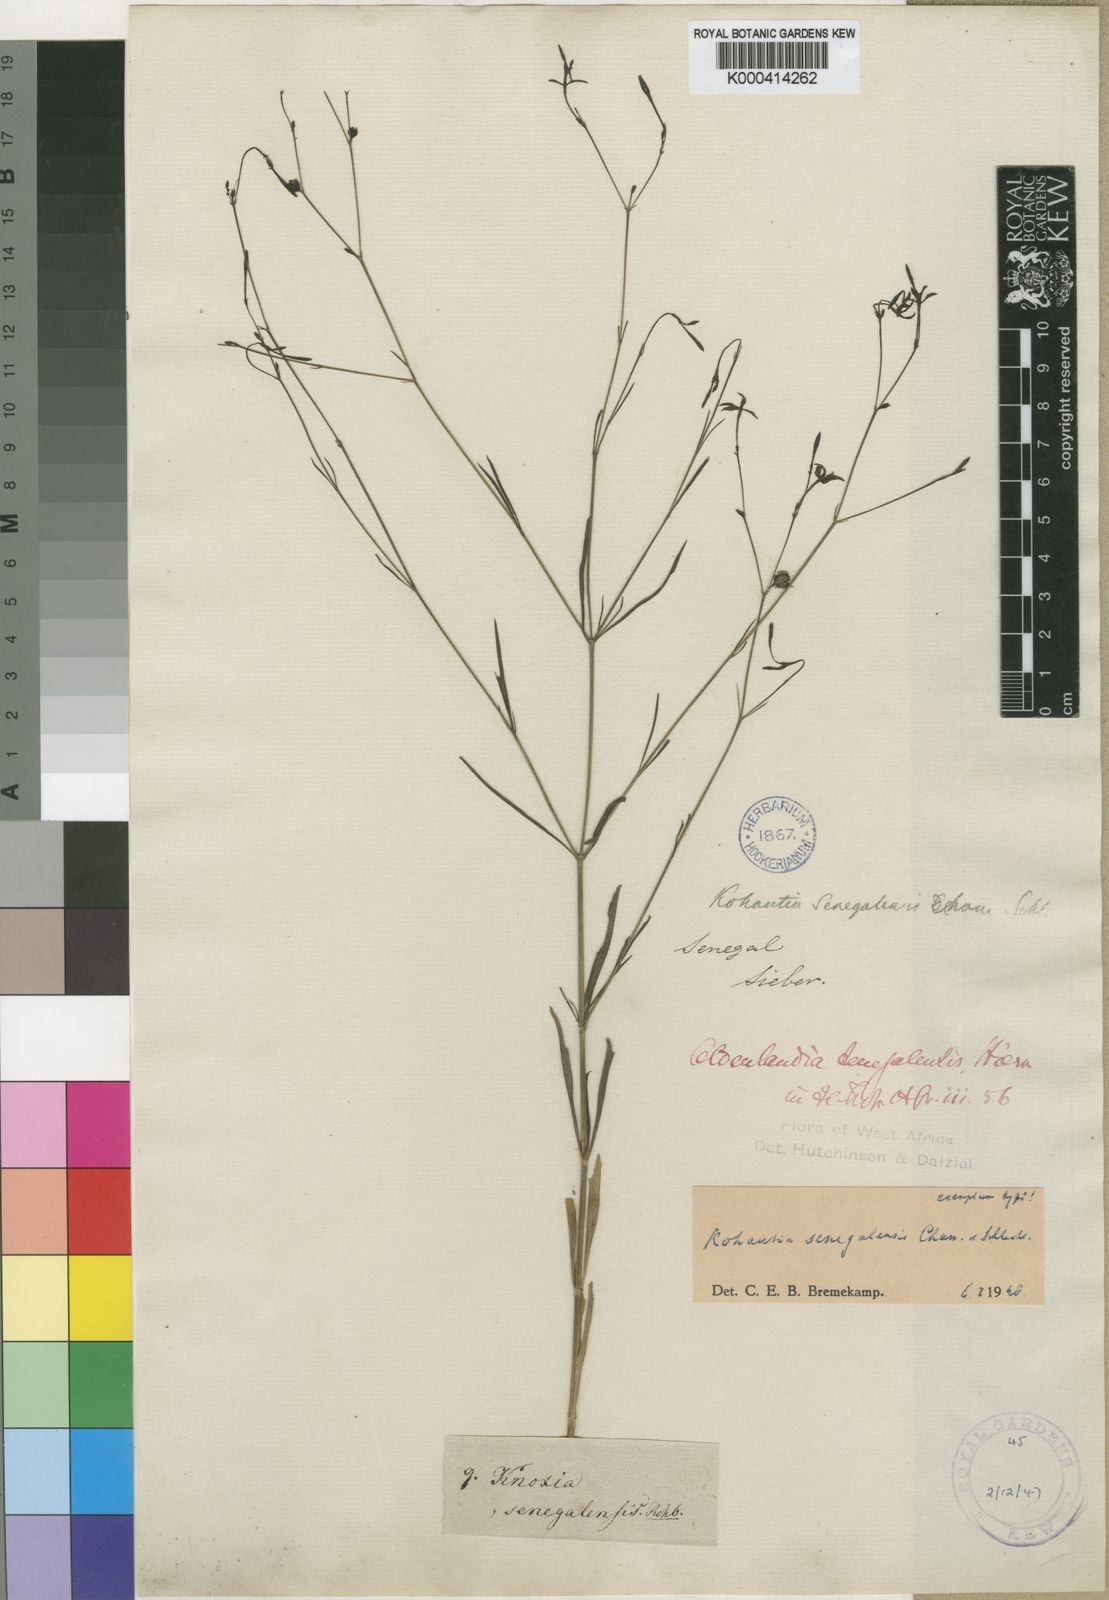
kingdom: Plantae
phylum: Tracheophyta
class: Magnoliopsida
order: Gentianales
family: Rubiaceae
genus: Kohautia
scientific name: Kohautia tenuis
